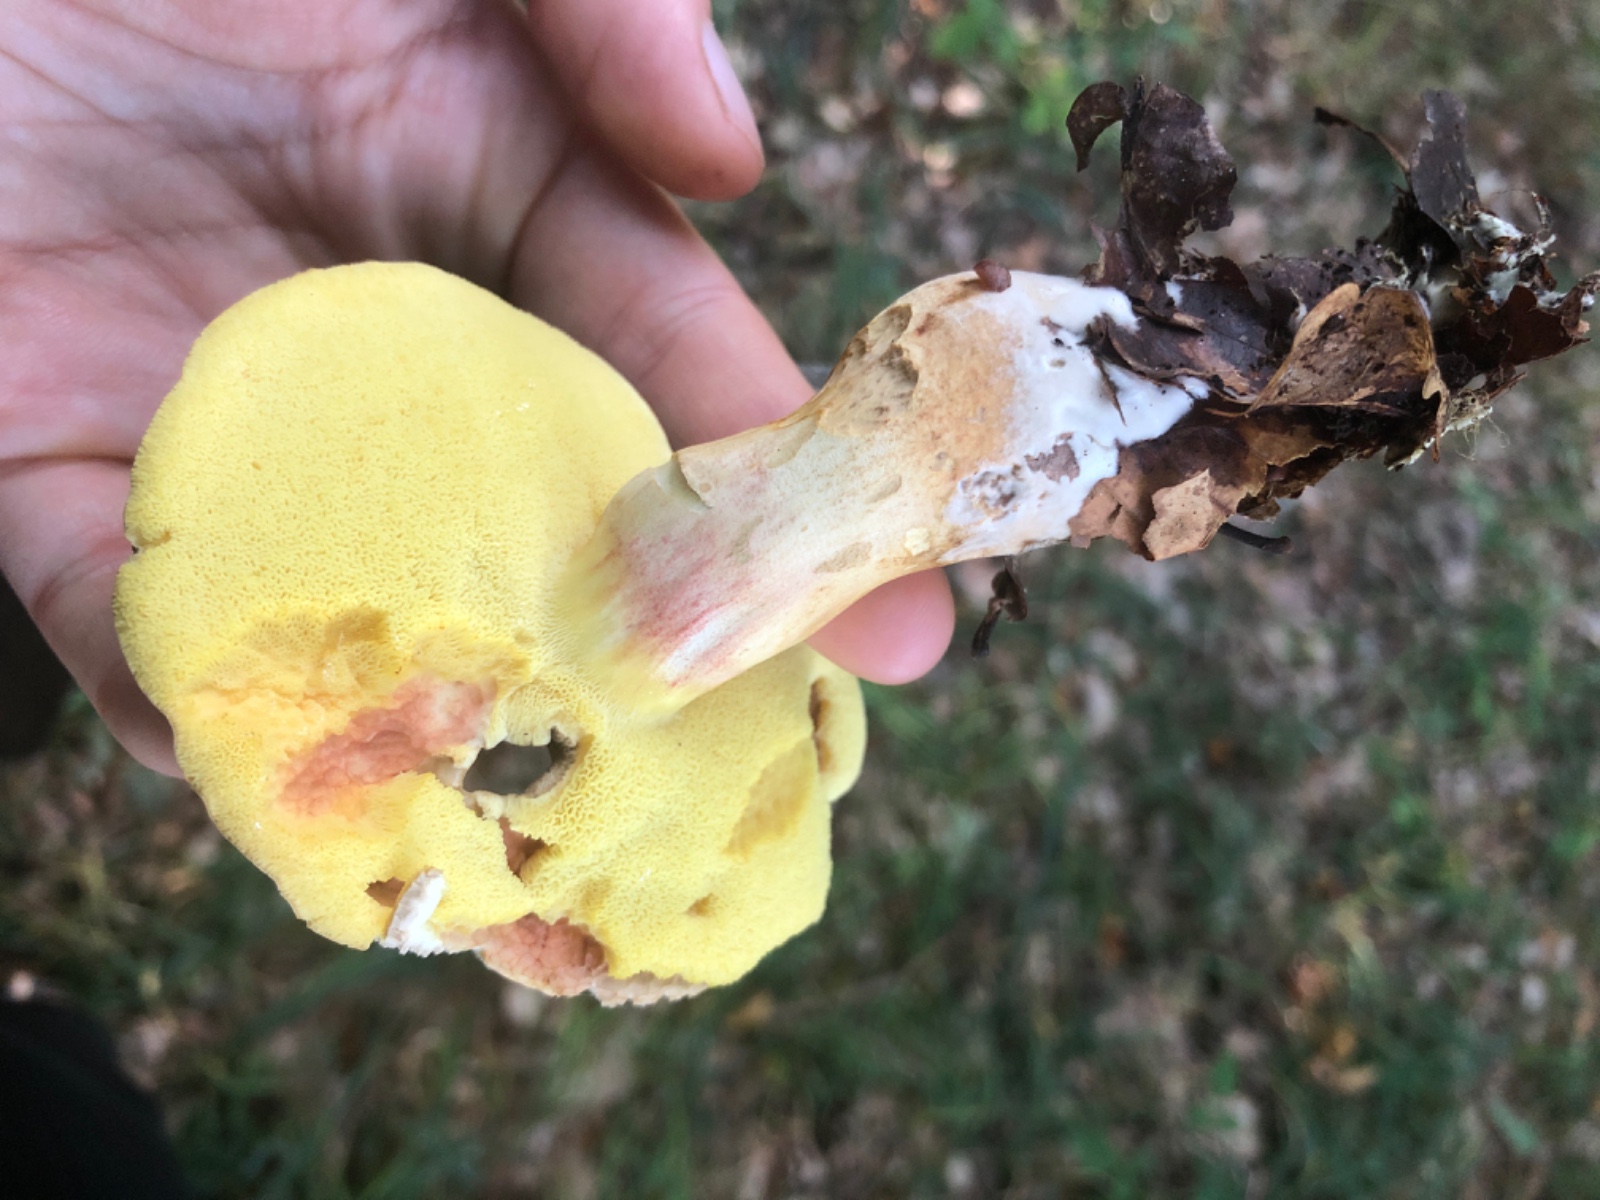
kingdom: Fungi
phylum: Basidiomycota
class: Agaricomycetes
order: Boletales
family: Boletaceae
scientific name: Boletaceae
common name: rørhatfamilien
